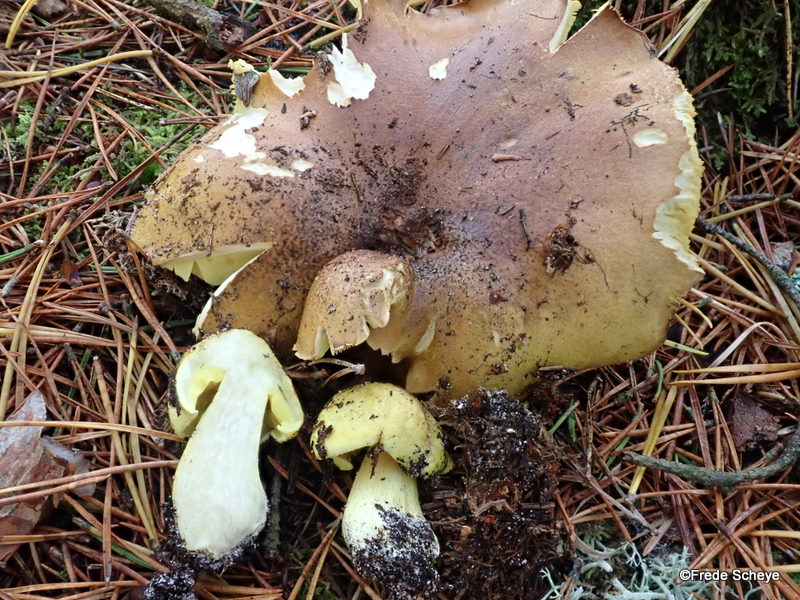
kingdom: Fungi
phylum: Basidiomycota
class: Agaricomycetes
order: Agaricales
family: Tricholomataceae
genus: Tricholoma
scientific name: Tricholoma equestre
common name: ægte ridderhat
